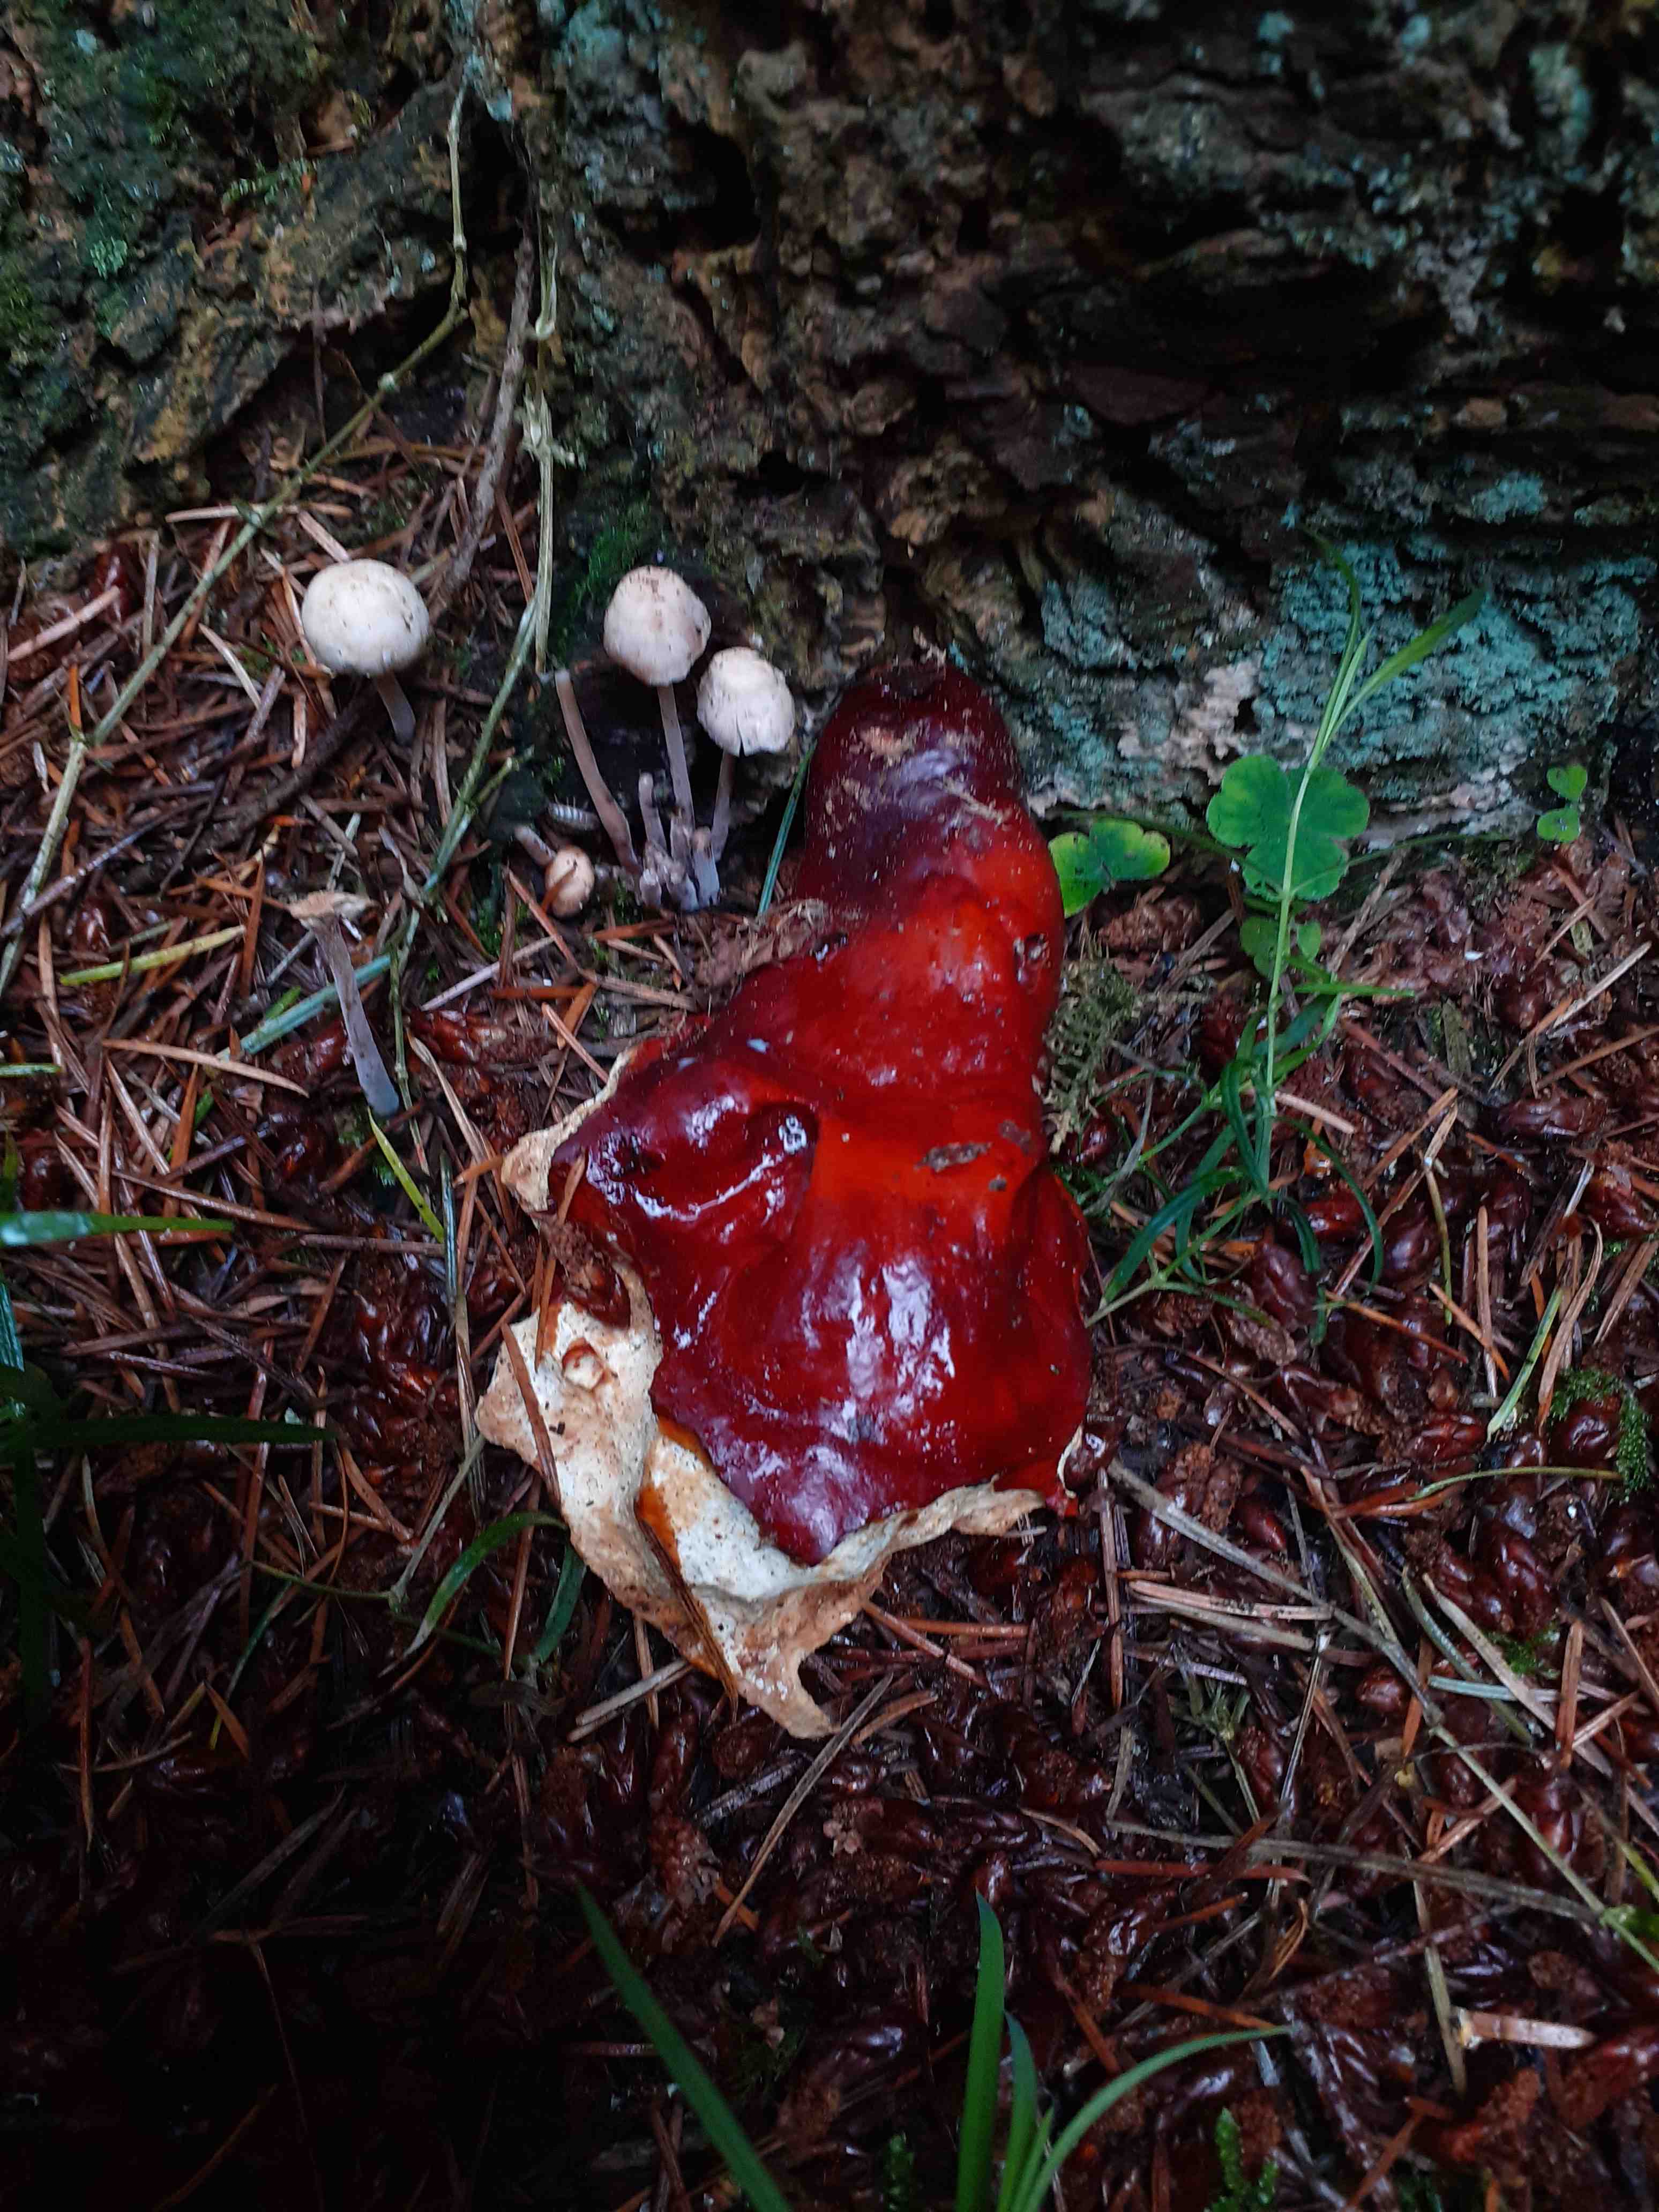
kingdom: Fungi
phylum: Basidiomycota
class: Agaricomycetes
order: Polyporales
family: Polyporaceae
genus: Ganoderma
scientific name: Ganoderma lucidum
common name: skinnende lakporesvamp
